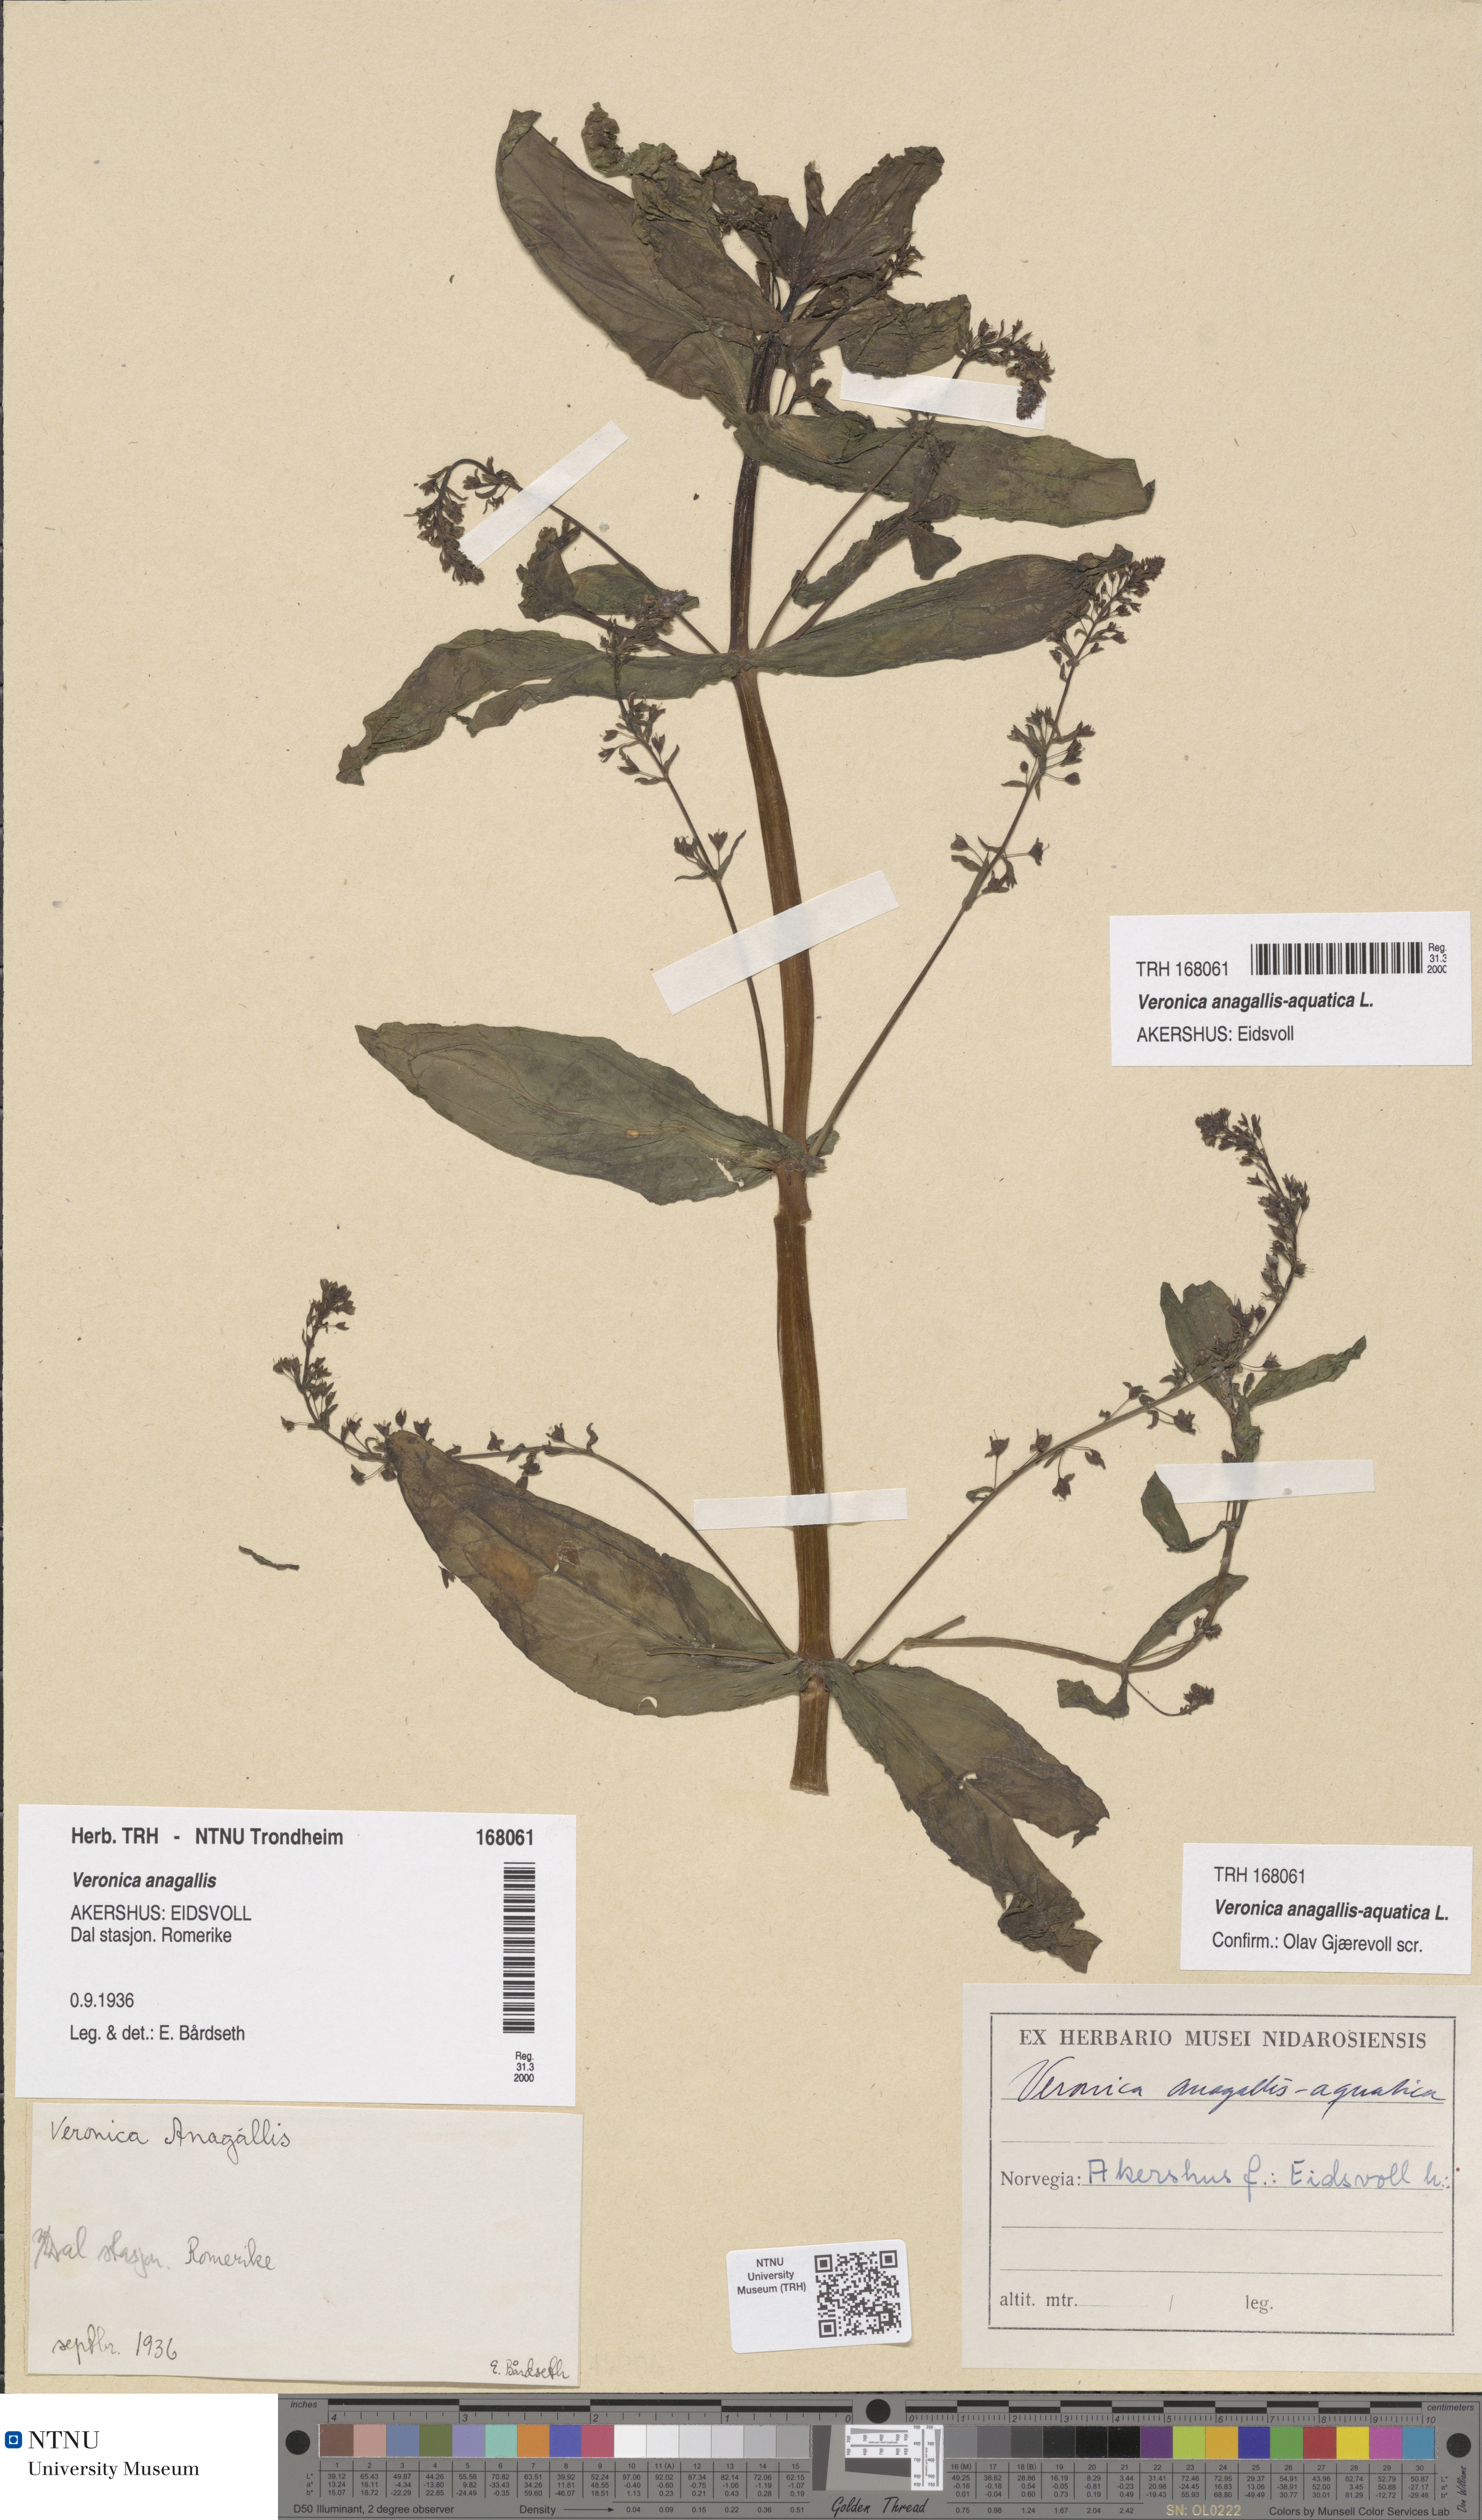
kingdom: Plantae
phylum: Tracheophyta
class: Magnoliopsida
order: Lamiales
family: Plantaginaceae
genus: Veronica
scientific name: Veronica anagallis-aquatica
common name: Water speedwell
